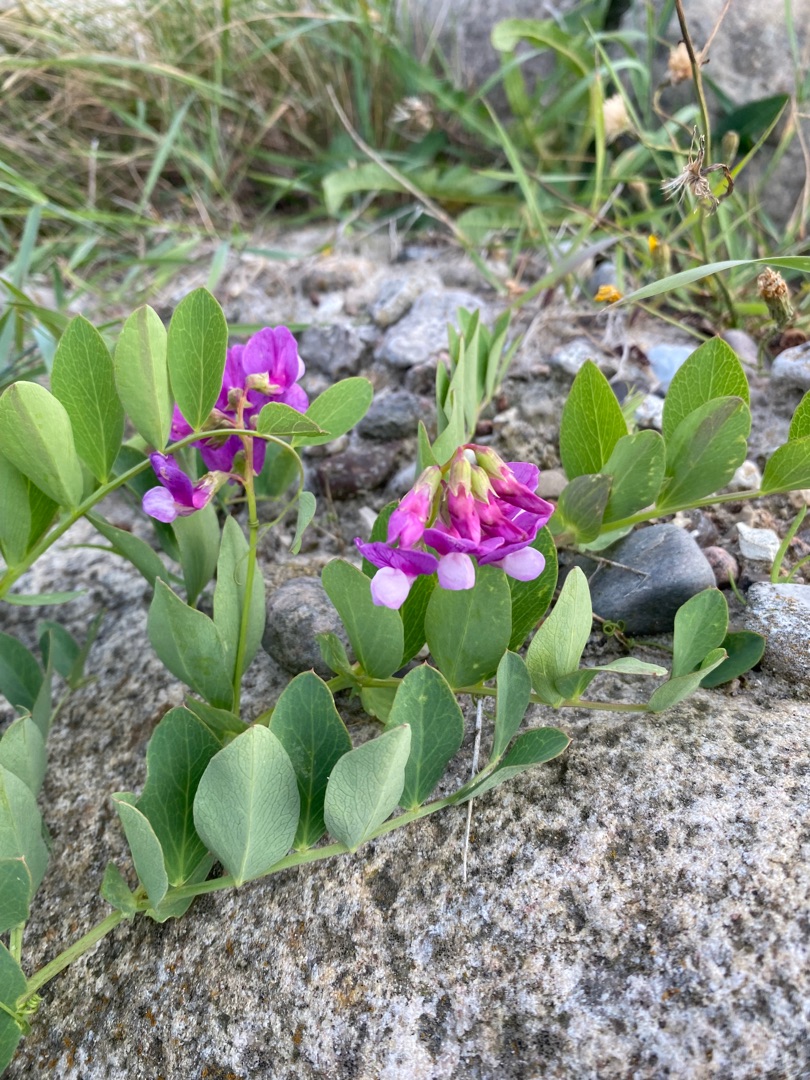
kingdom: Plantae
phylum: Tracheophyta
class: Magnoliopsida
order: Fabales
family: Fabaceae
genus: Lathyrus
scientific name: Lathyrus japonicus
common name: Strand-fladbælg
